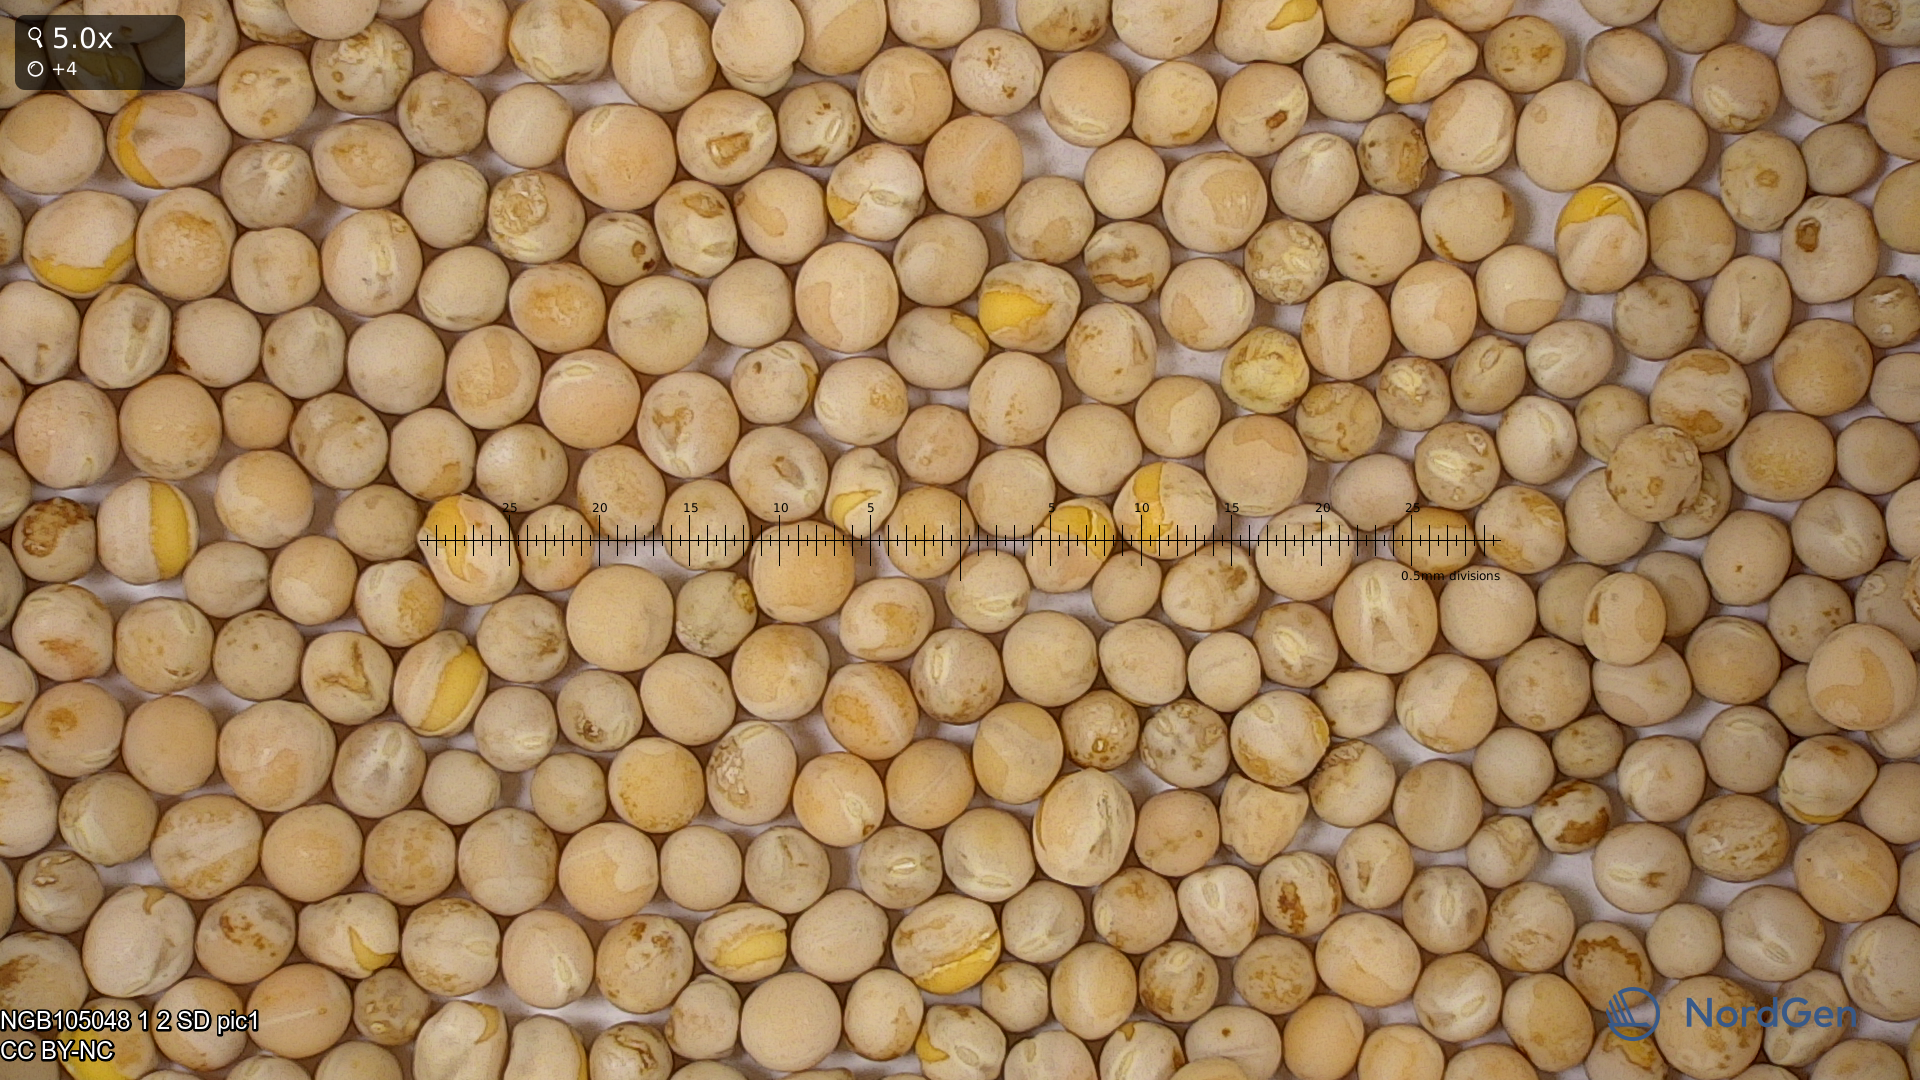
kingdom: Plantae
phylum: Tracheophyta
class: Magnoliopsida
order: Fabales
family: Fabaceae
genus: Lathyrus
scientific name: Lathyrus oleraceus
